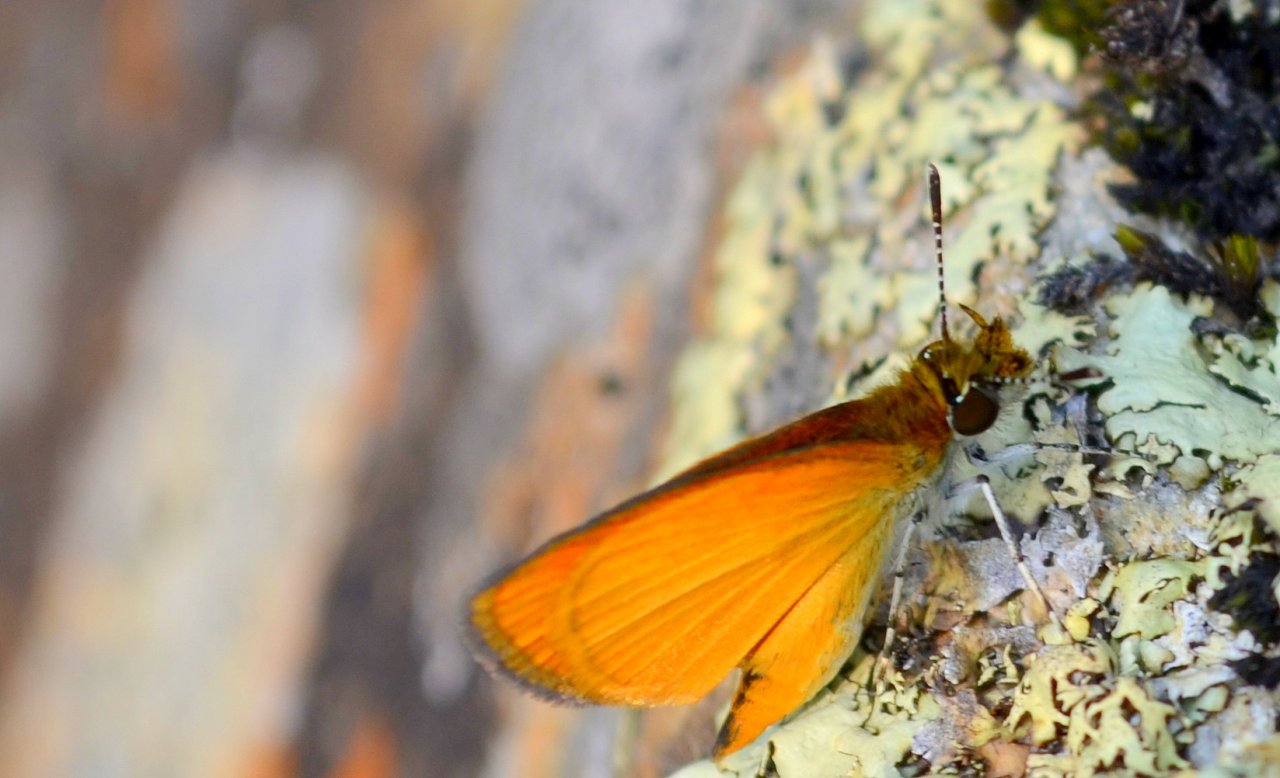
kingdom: Animalia
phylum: Arthropoda
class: Insecta
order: Lepidoptera
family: Hesperiidae
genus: Ancyloxypha
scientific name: Ancyloxypha numitor
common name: Least Skipper
